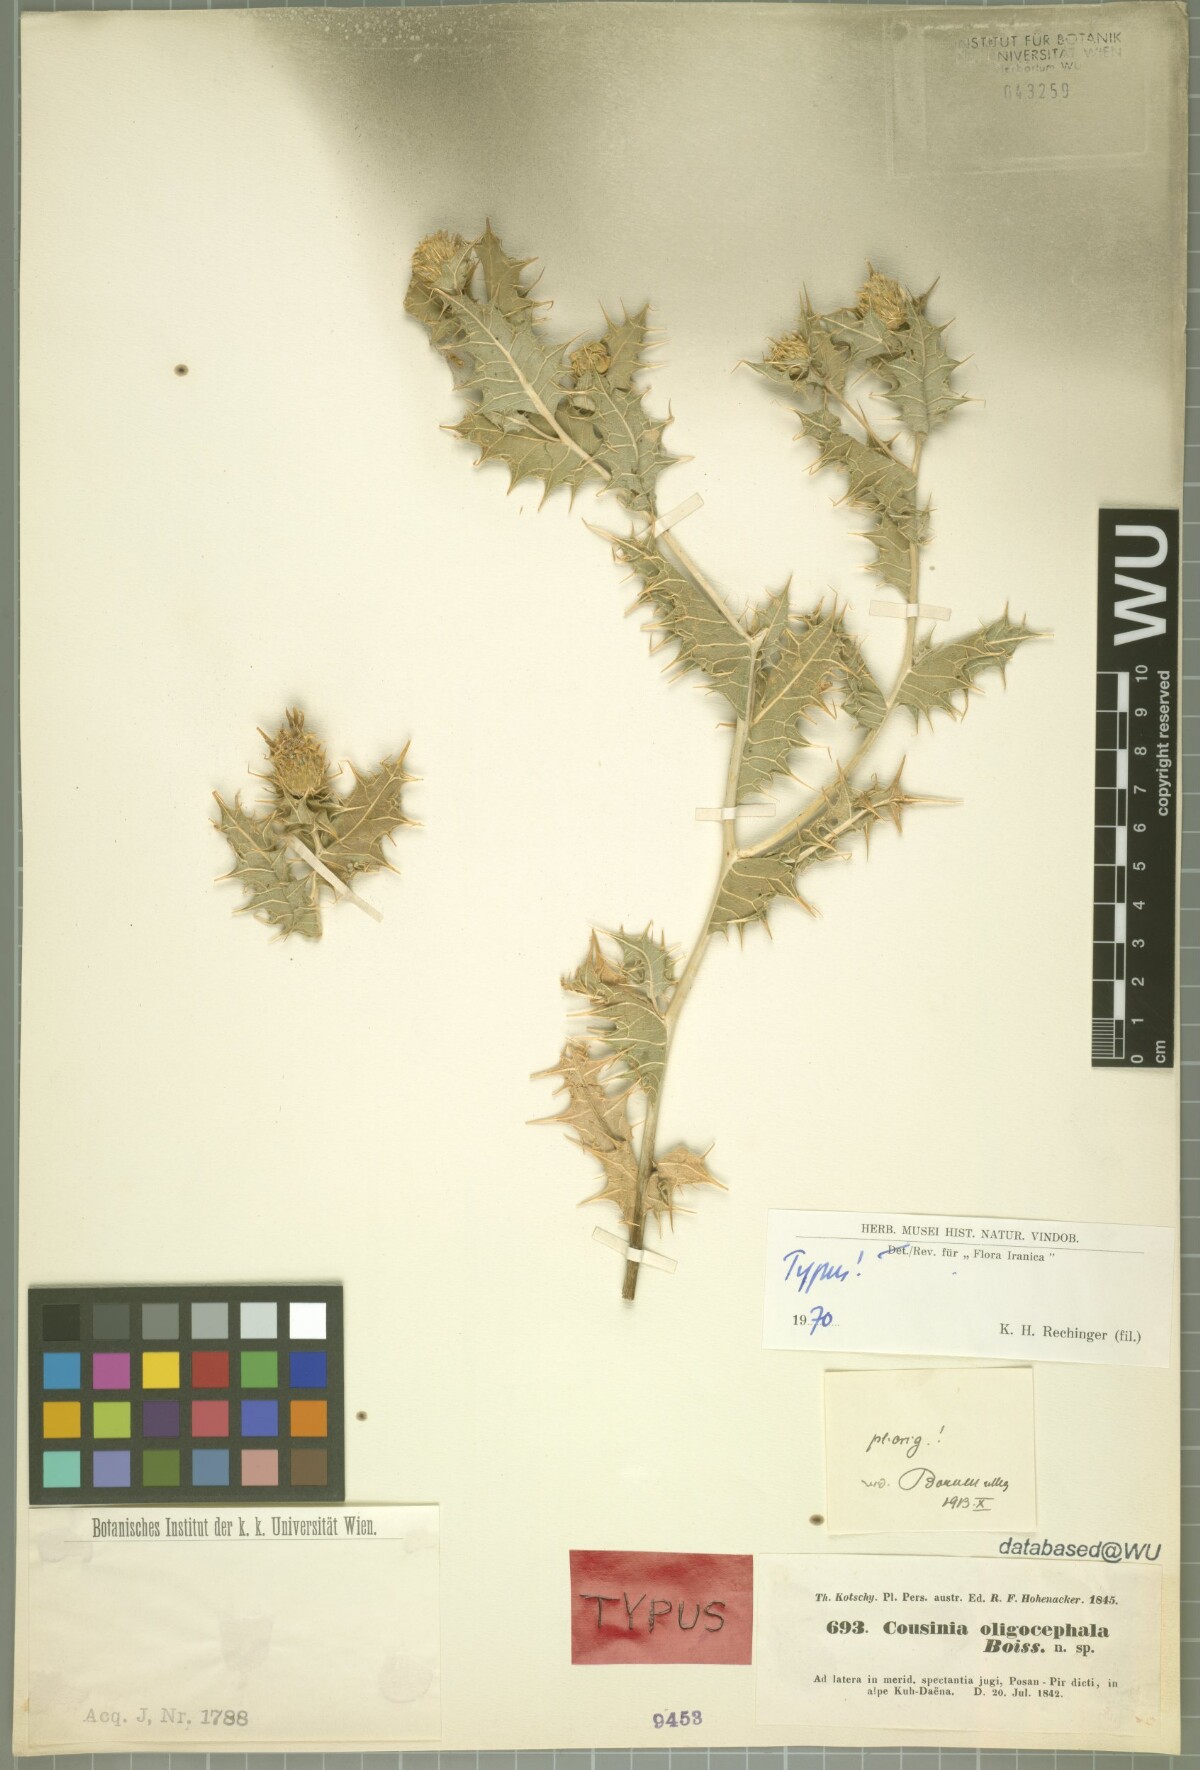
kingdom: Plantae
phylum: Tracheophyta
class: Magnoliopsida
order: Asterales
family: Asteraceae
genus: Cousinia
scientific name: Cousinia oligocephala
